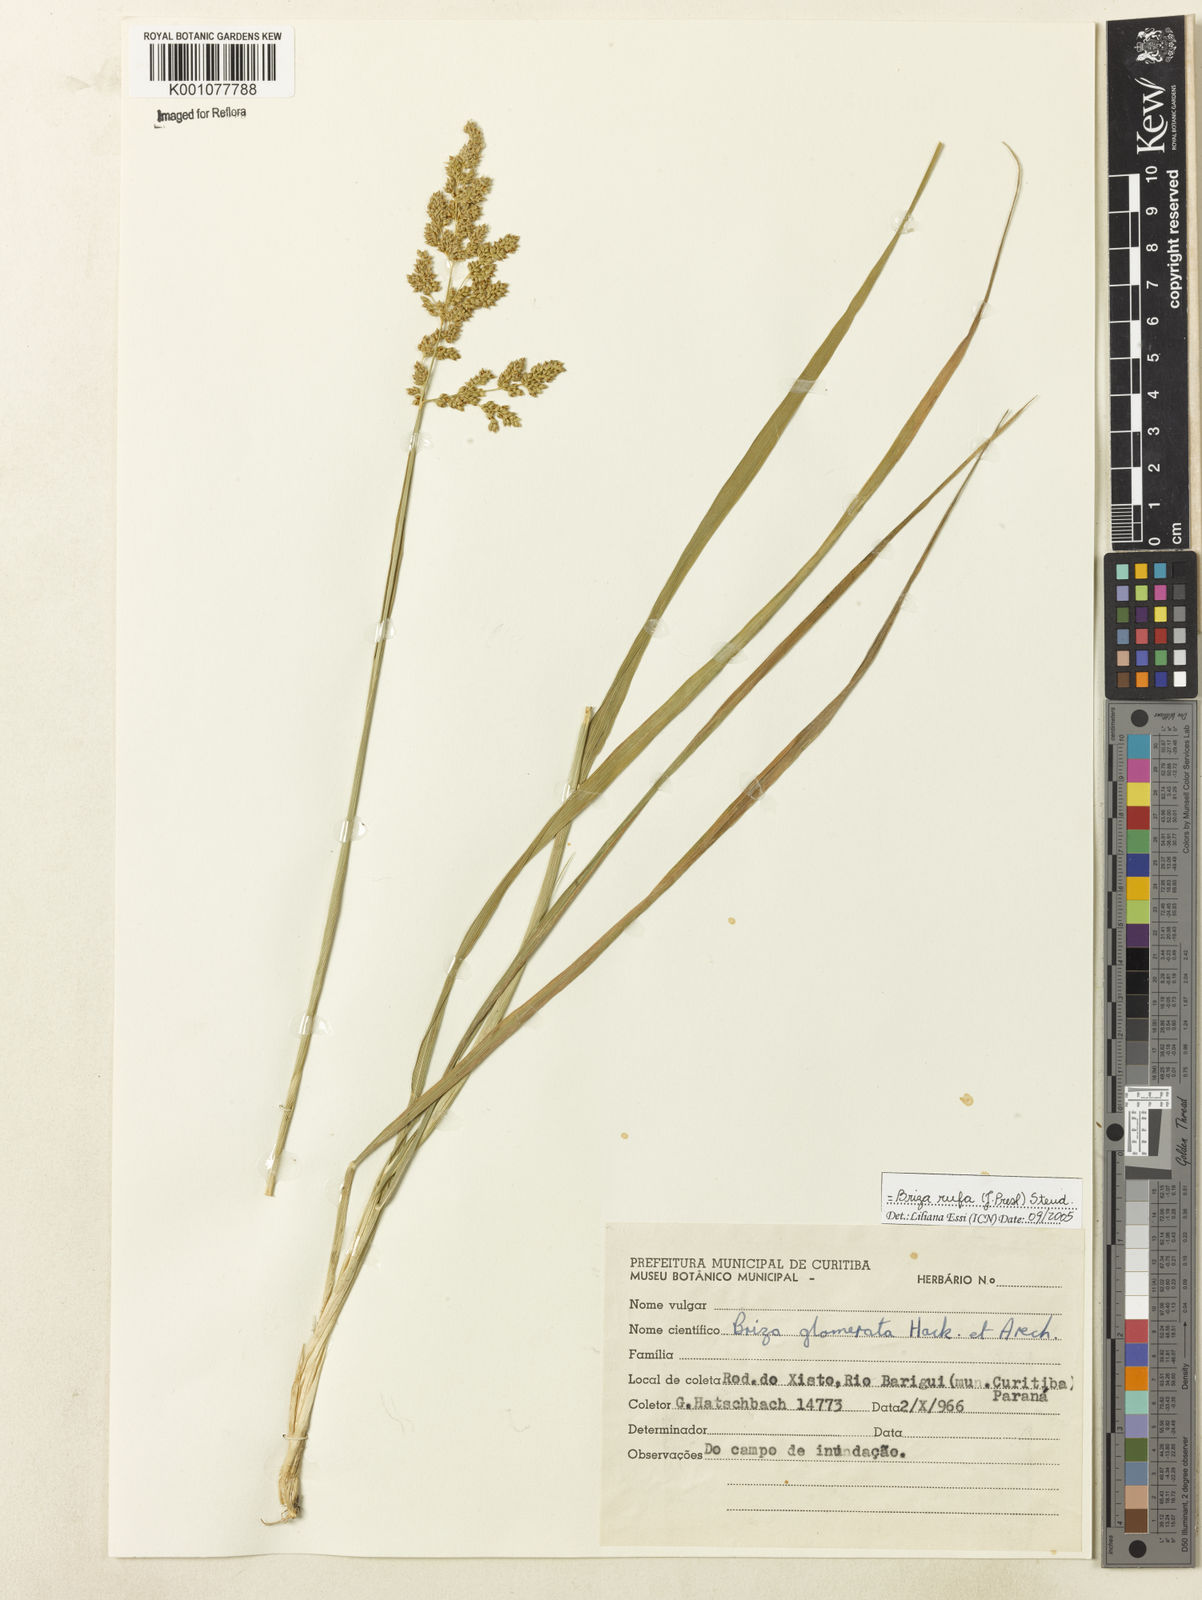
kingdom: Plantae
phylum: Tracheophyta
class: Liliopsida
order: Poales
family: Poaceae
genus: Lombardochloa
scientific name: Lombardochloa rufa
